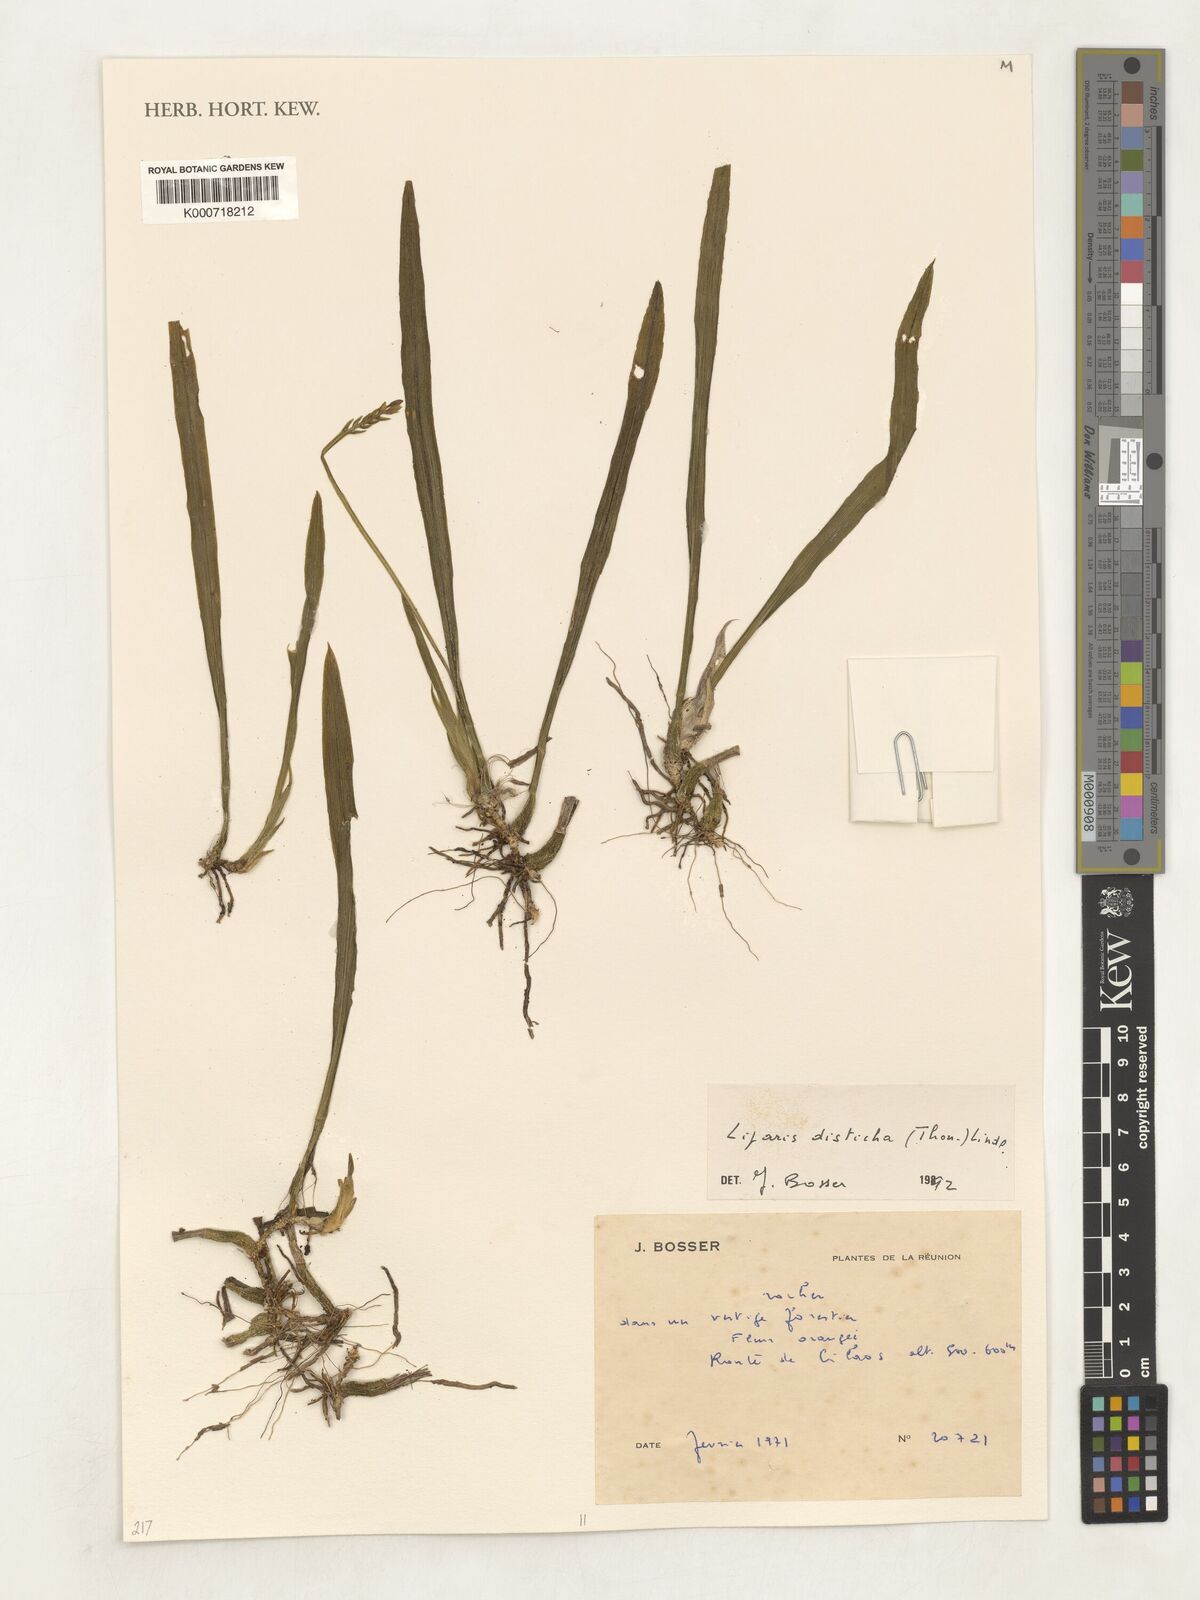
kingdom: Plantae
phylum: Tracheophyta
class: Liliopsida
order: Asparagales
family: Orchidaceae
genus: Stichorkis
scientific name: Stichorkis distichis
